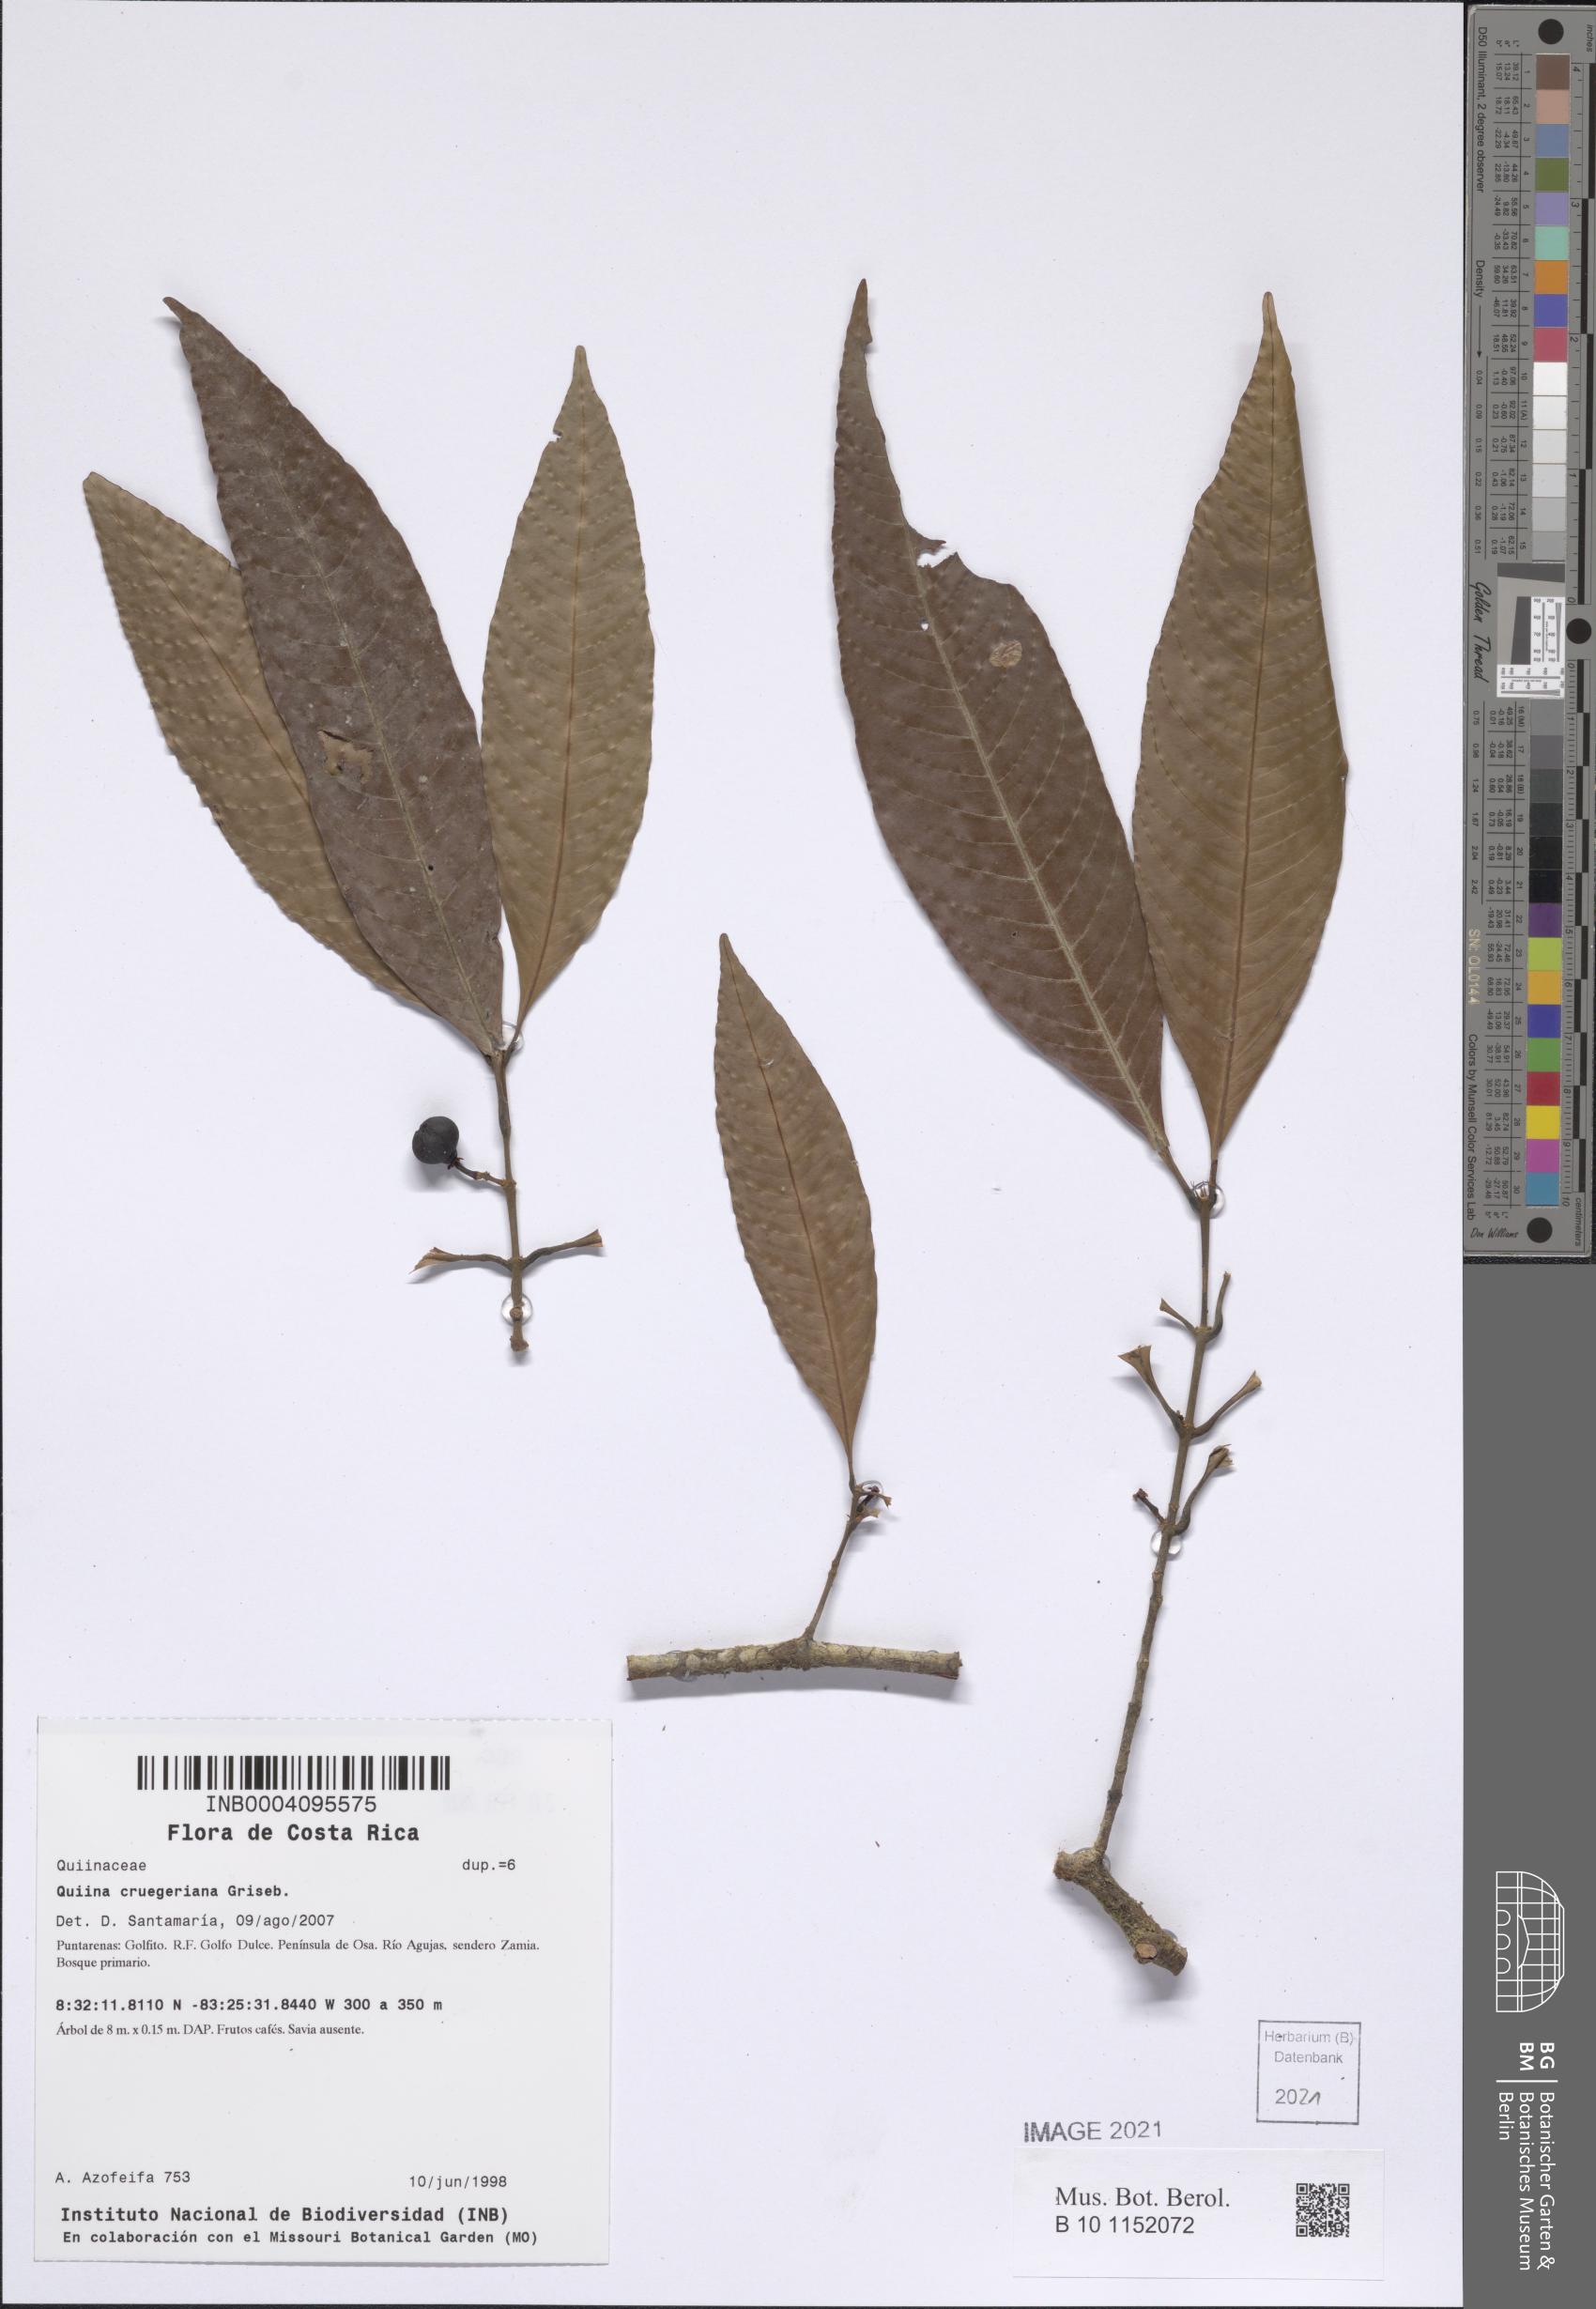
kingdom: Plantae
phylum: Tracheophyta
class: Magnoliopsida
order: Malpighiales
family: Quiinaceae
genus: Quiina
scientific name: Quiina cruegeriana
